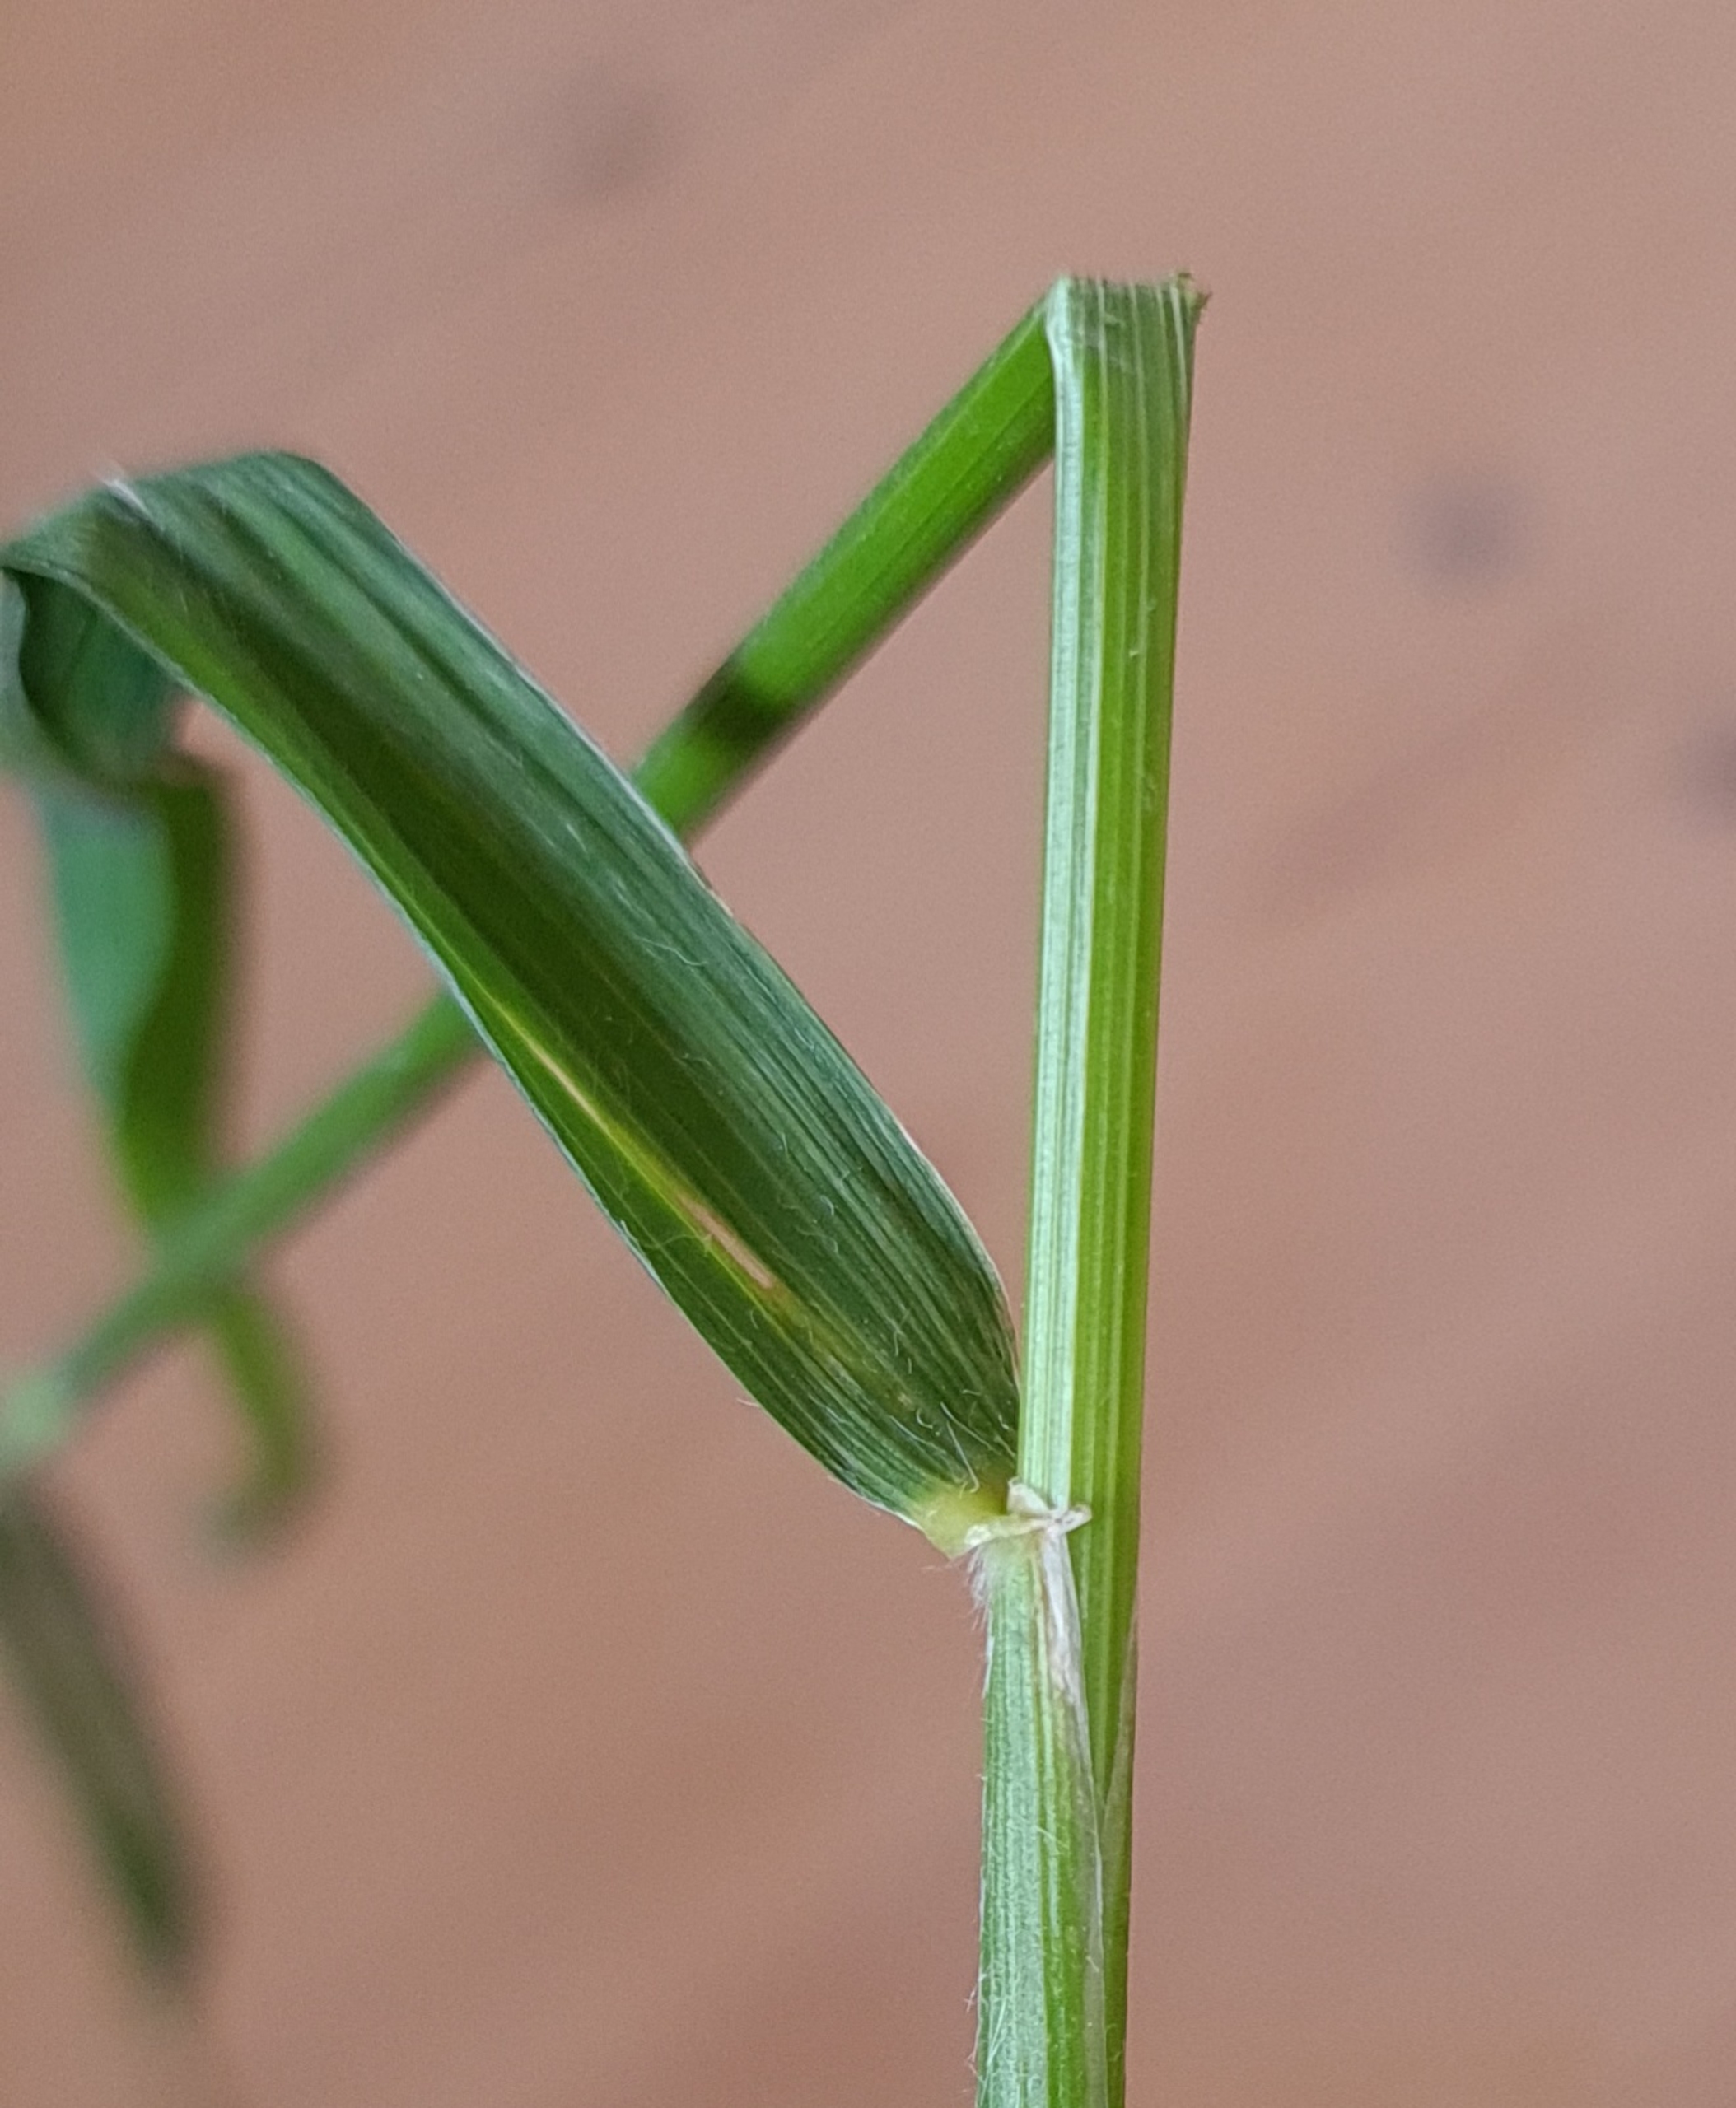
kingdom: Plantae
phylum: Tracheophyta
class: Liliopsida
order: Poales
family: Poaceae
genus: Hordelymus
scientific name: Hordelymus europaeus
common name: Skovbyg
